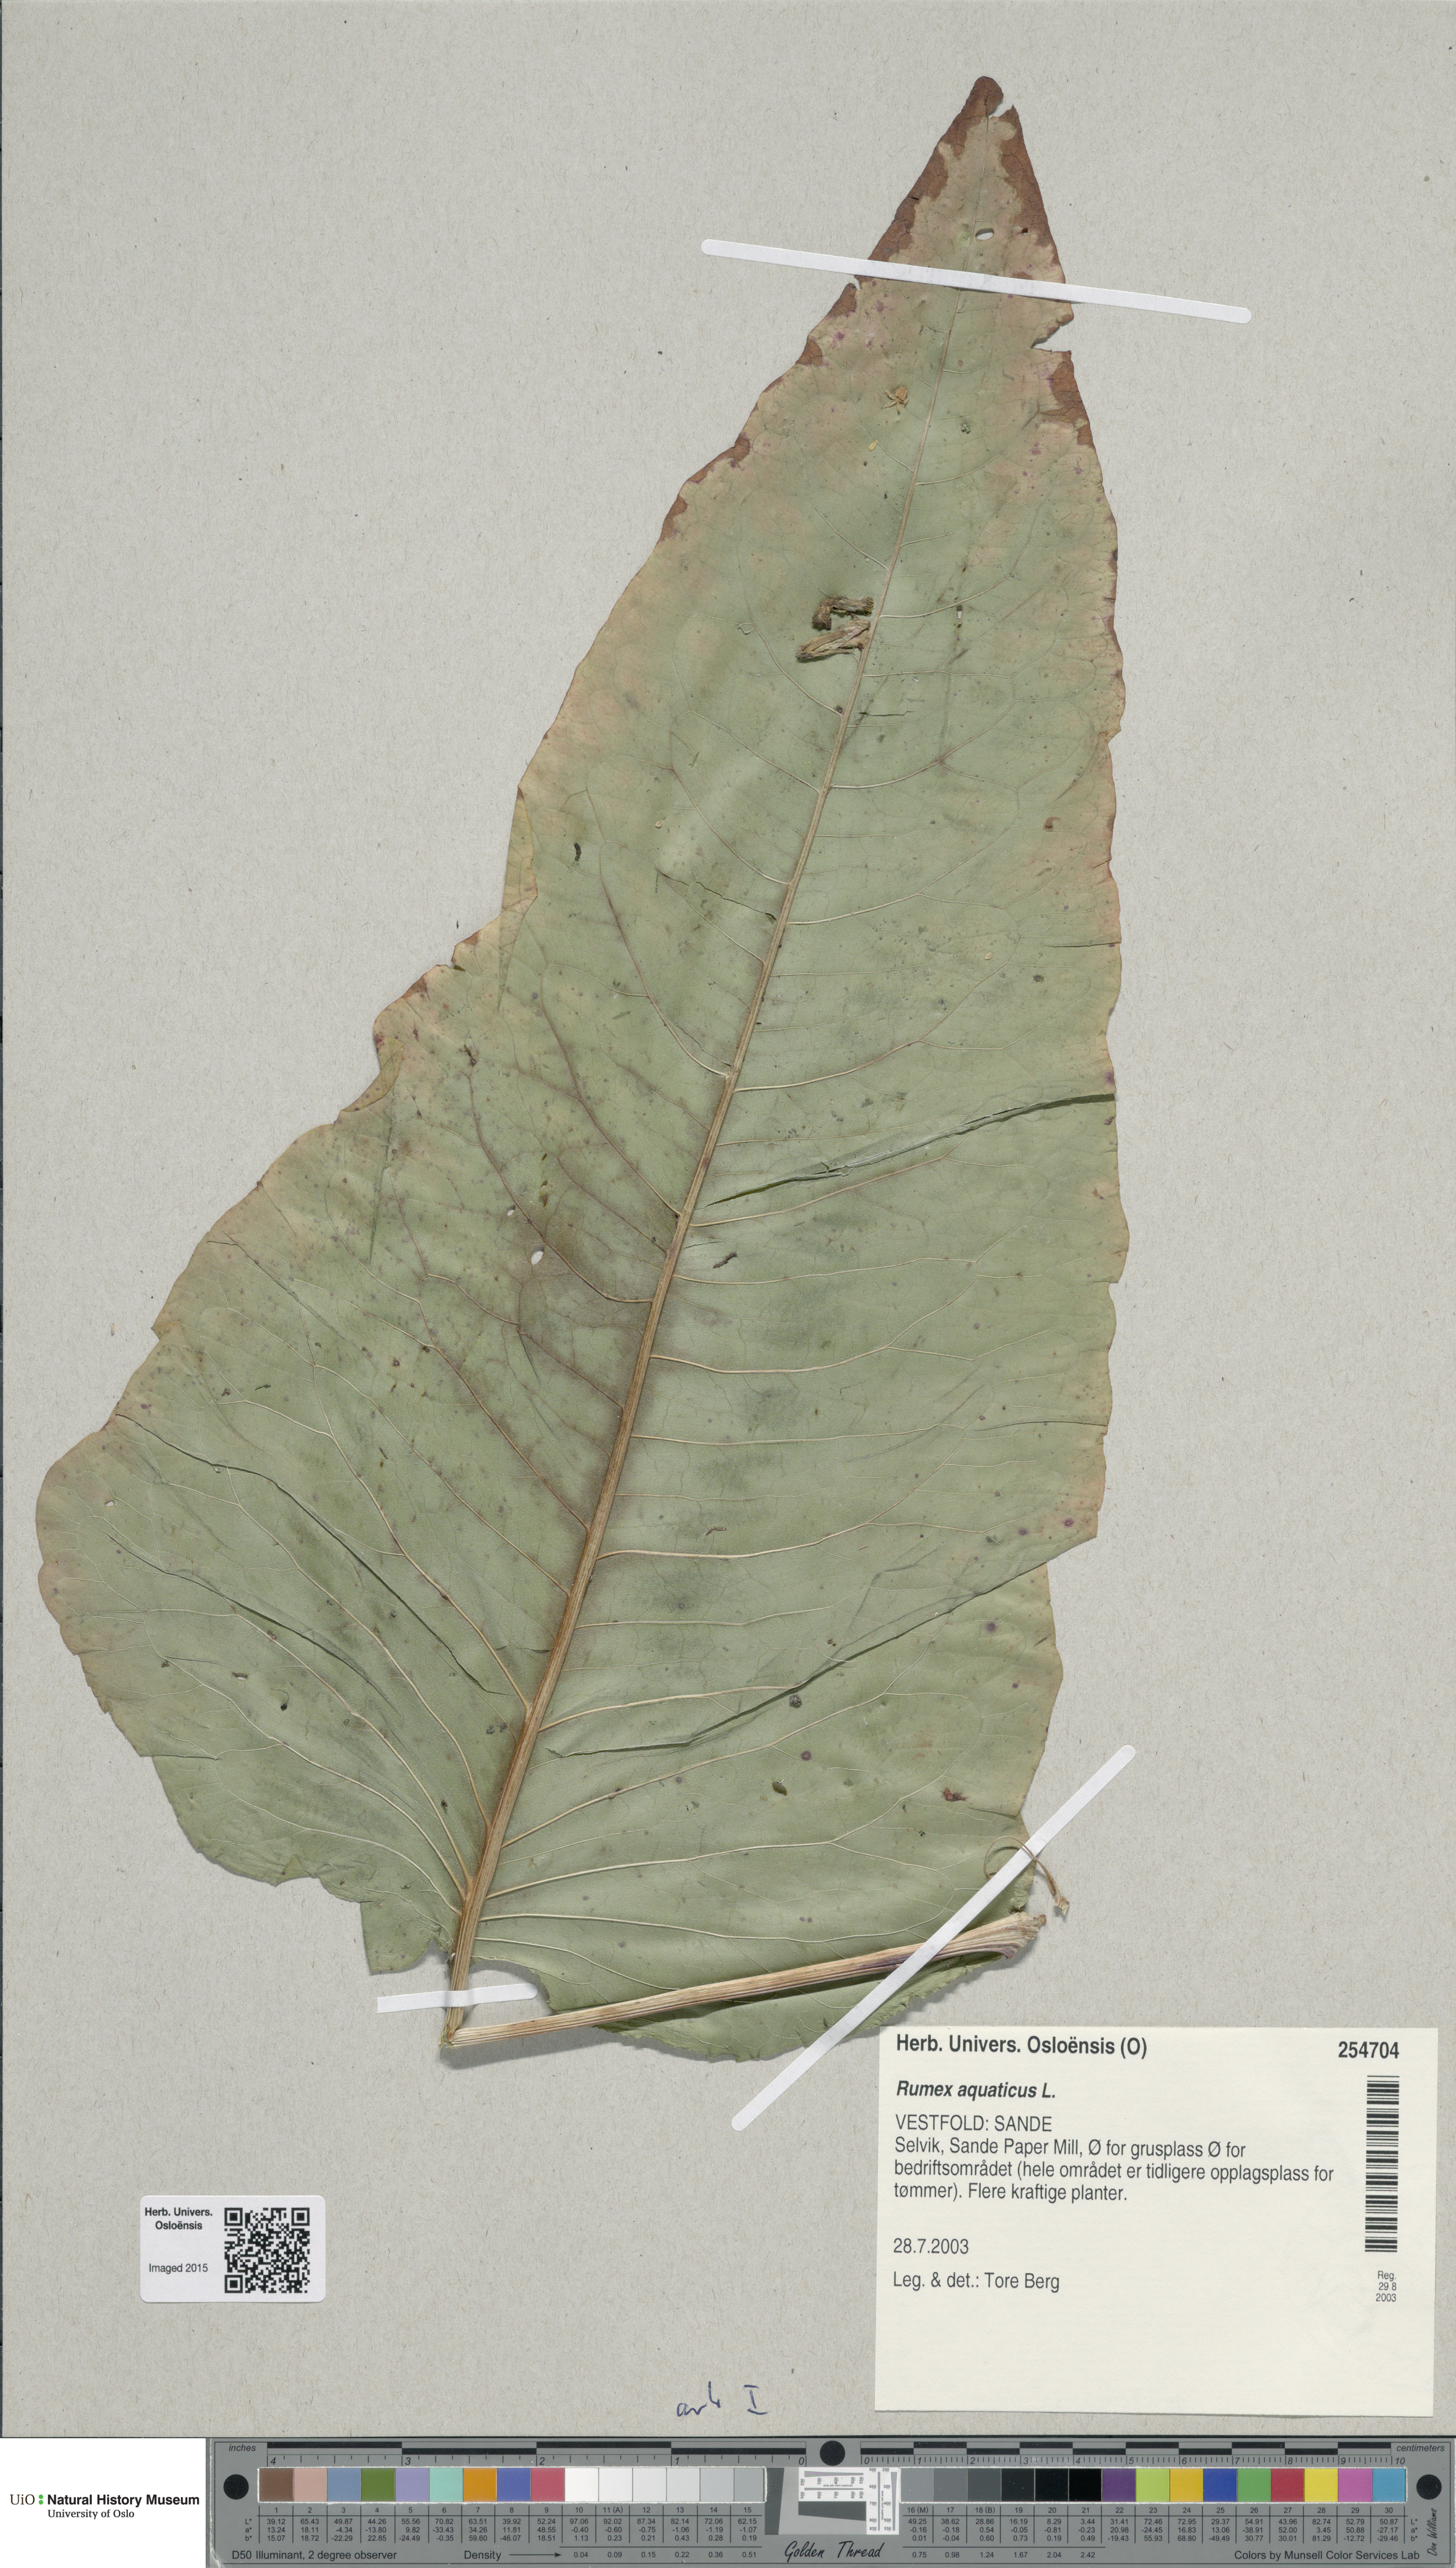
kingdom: Plantae
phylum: Tracheophyta
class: Magnoliopsida
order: Caryophyllales
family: Polygonaceae
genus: Rumex
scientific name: Rumex aquaticus
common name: Scottish dock
